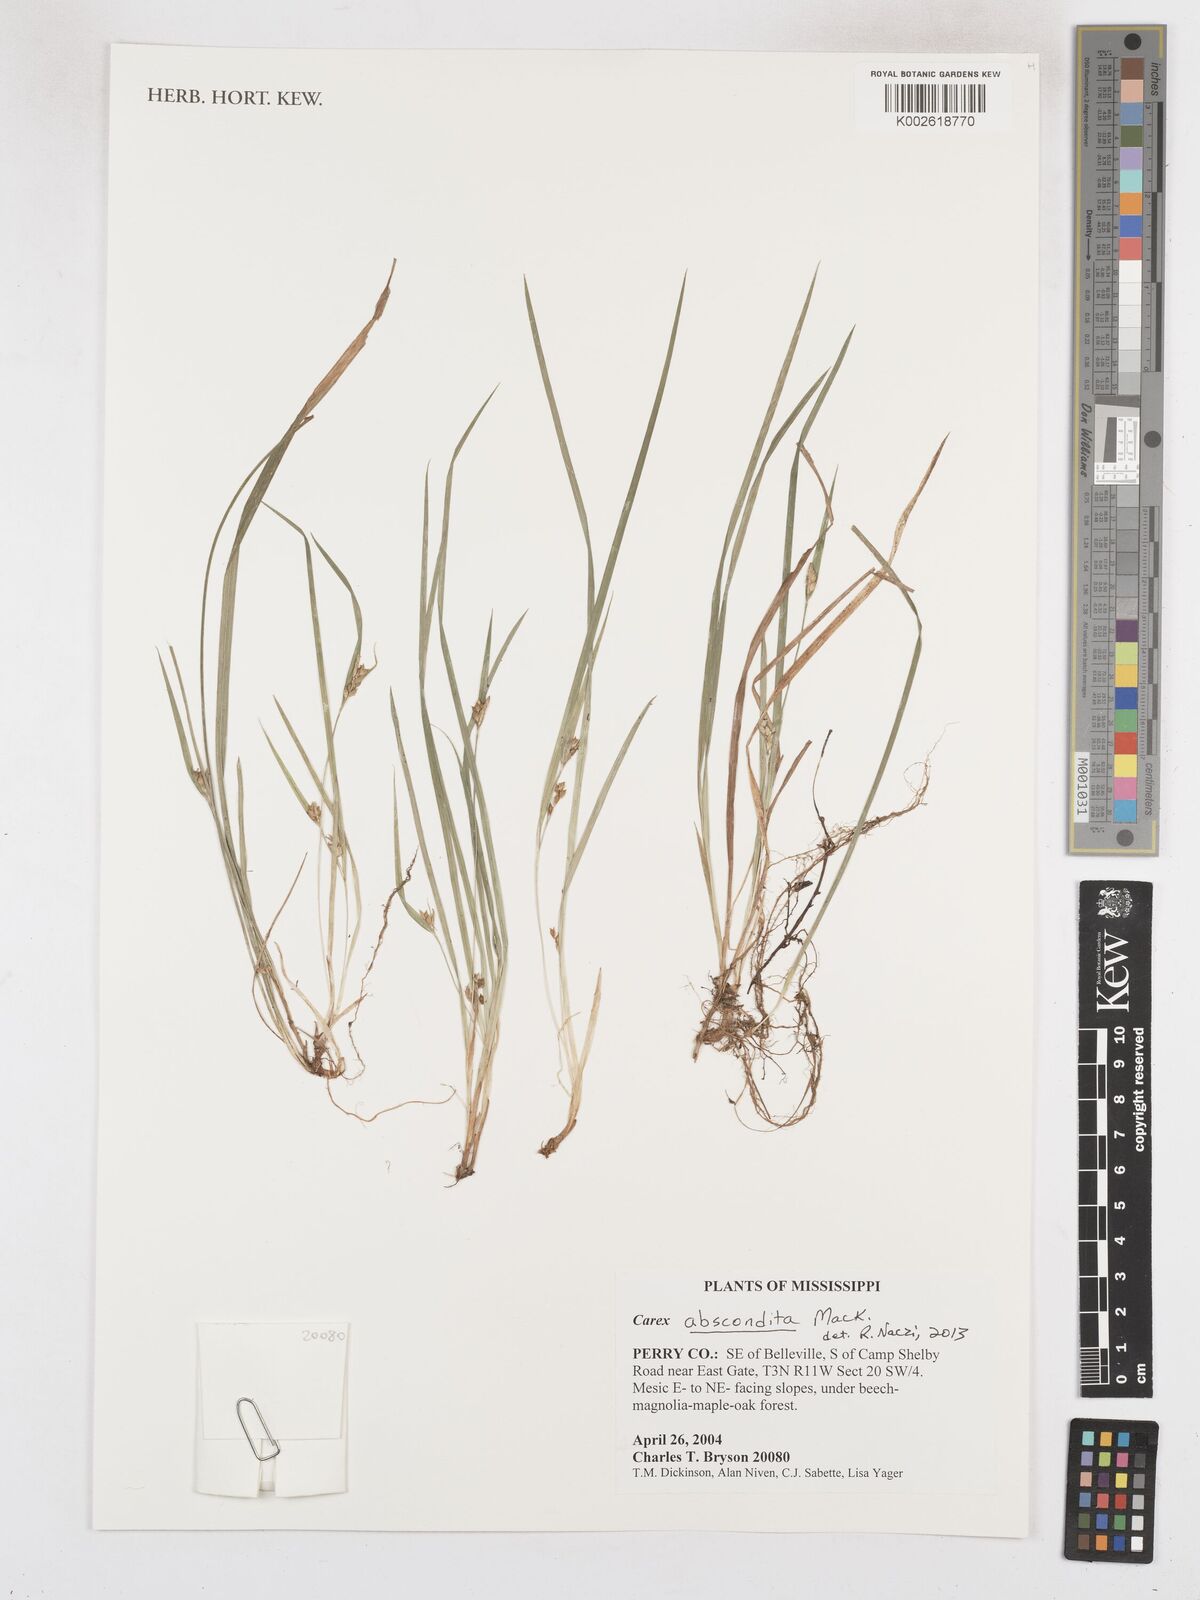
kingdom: Plantae
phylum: Tracheophyta
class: Liliopsida
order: Poales
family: Cyperaceae
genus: Carex
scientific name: Carex abscondita
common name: Thicket sedge
